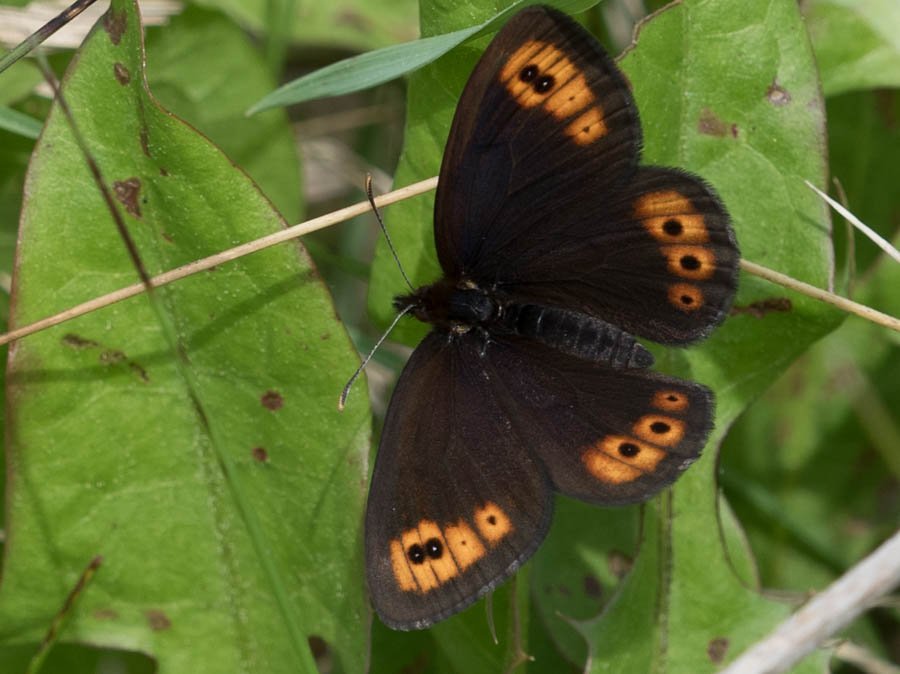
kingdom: Animalia
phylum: Arthropoda
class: Insecta
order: Lepidoptera
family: Nymphalidae
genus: Erebia
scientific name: Erebia epipsodea
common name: Common Alpine
